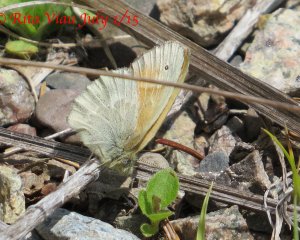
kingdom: Animalia
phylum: Arthropoda
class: Insecta
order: Lepidoptera
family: Nymphalidae
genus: Coenonympha
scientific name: Coenonympha tullia
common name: Large Heath
